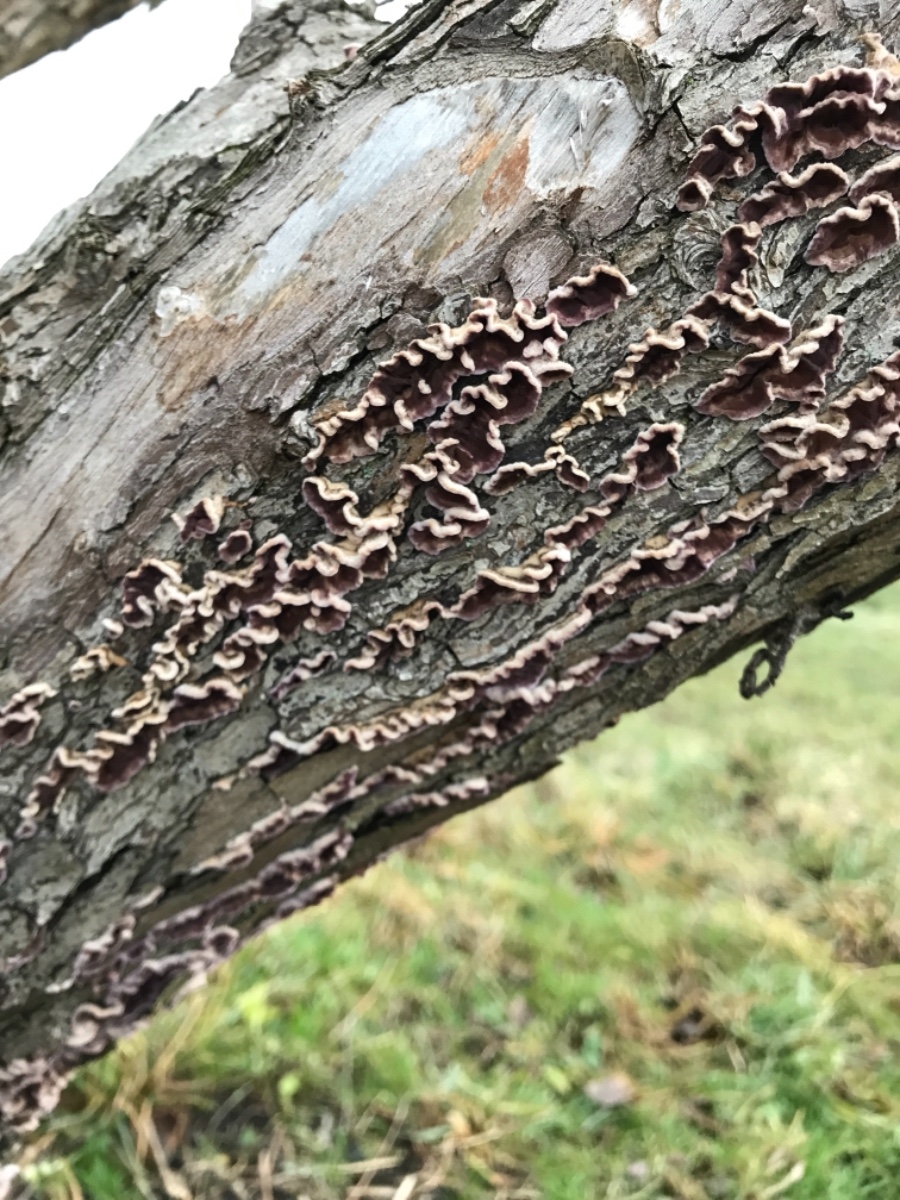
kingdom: Fungi
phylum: Basidiomycota
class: Agaricomycetes
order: Agaricales
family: Cyphellaceae
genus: Chondrostereum
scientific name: Chondrostereum purpureum
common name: purpurlædersvamp
